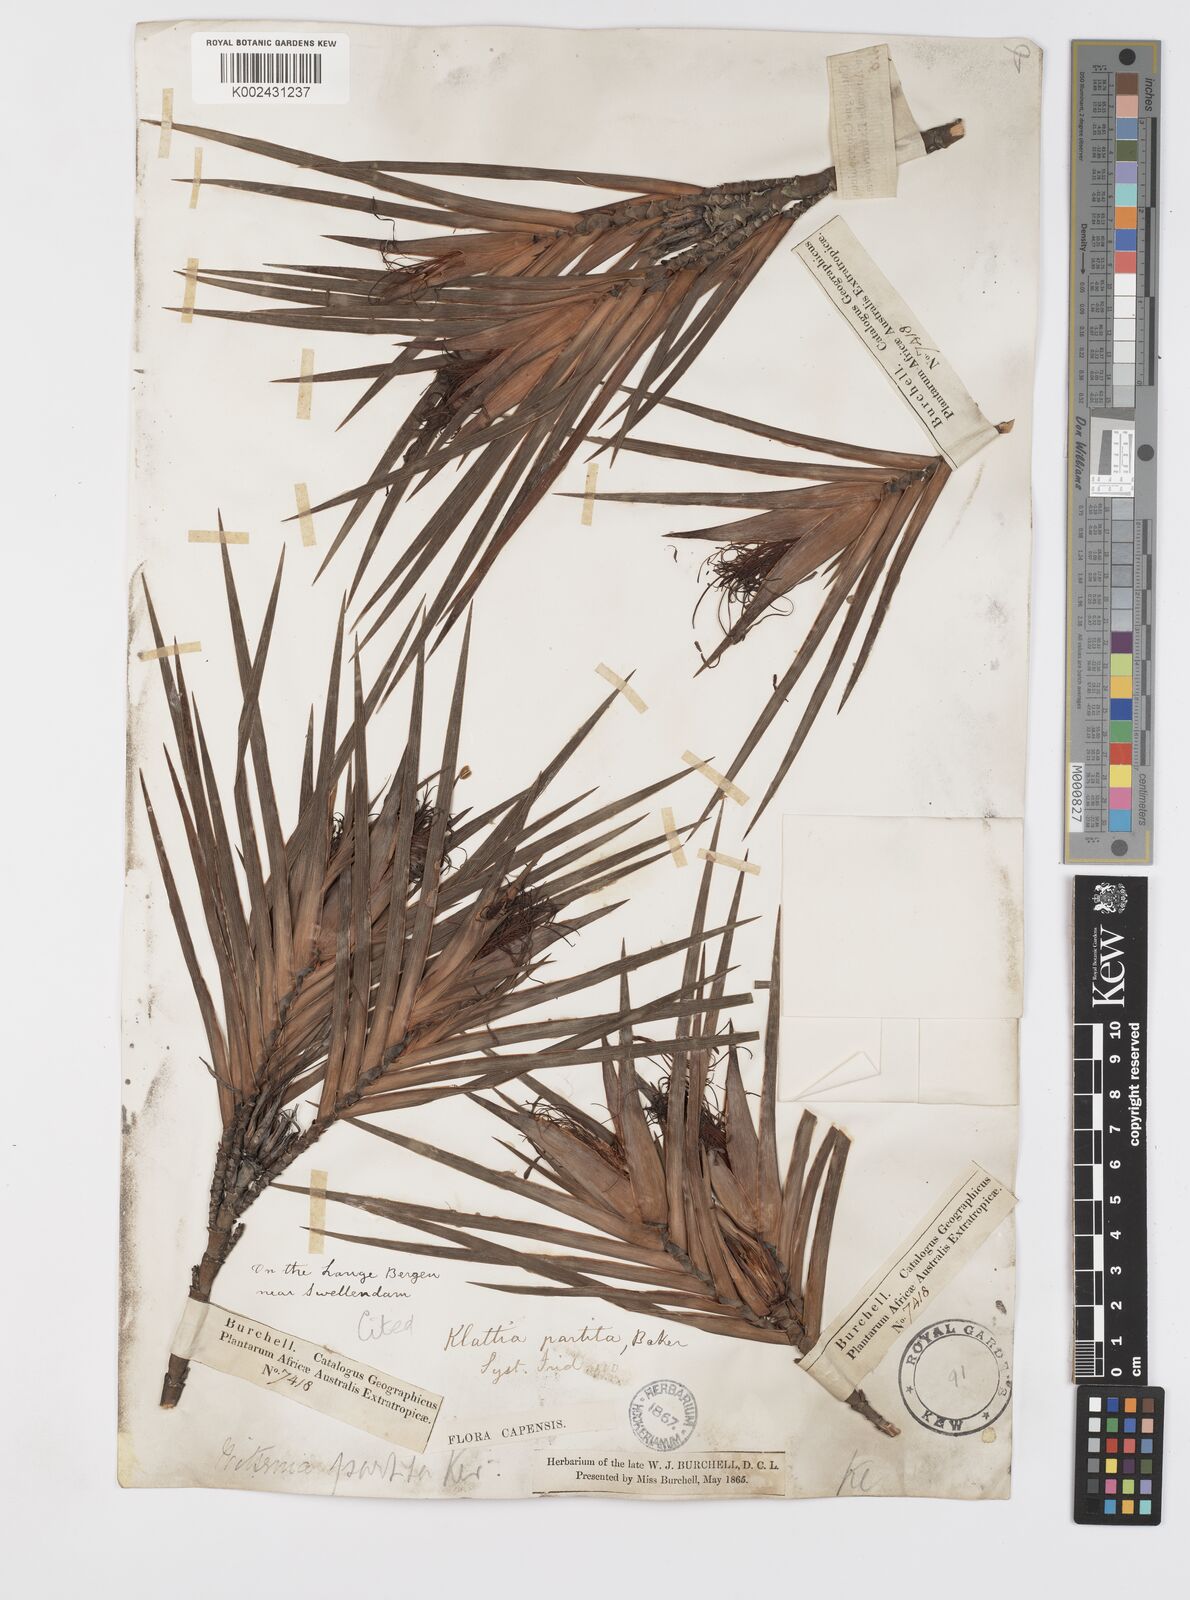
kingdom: Plantae
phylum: Tracheophyta
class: Liliopsida
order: Asparagales
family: Iridaceae
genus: Klattia
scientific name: Klattia partita
